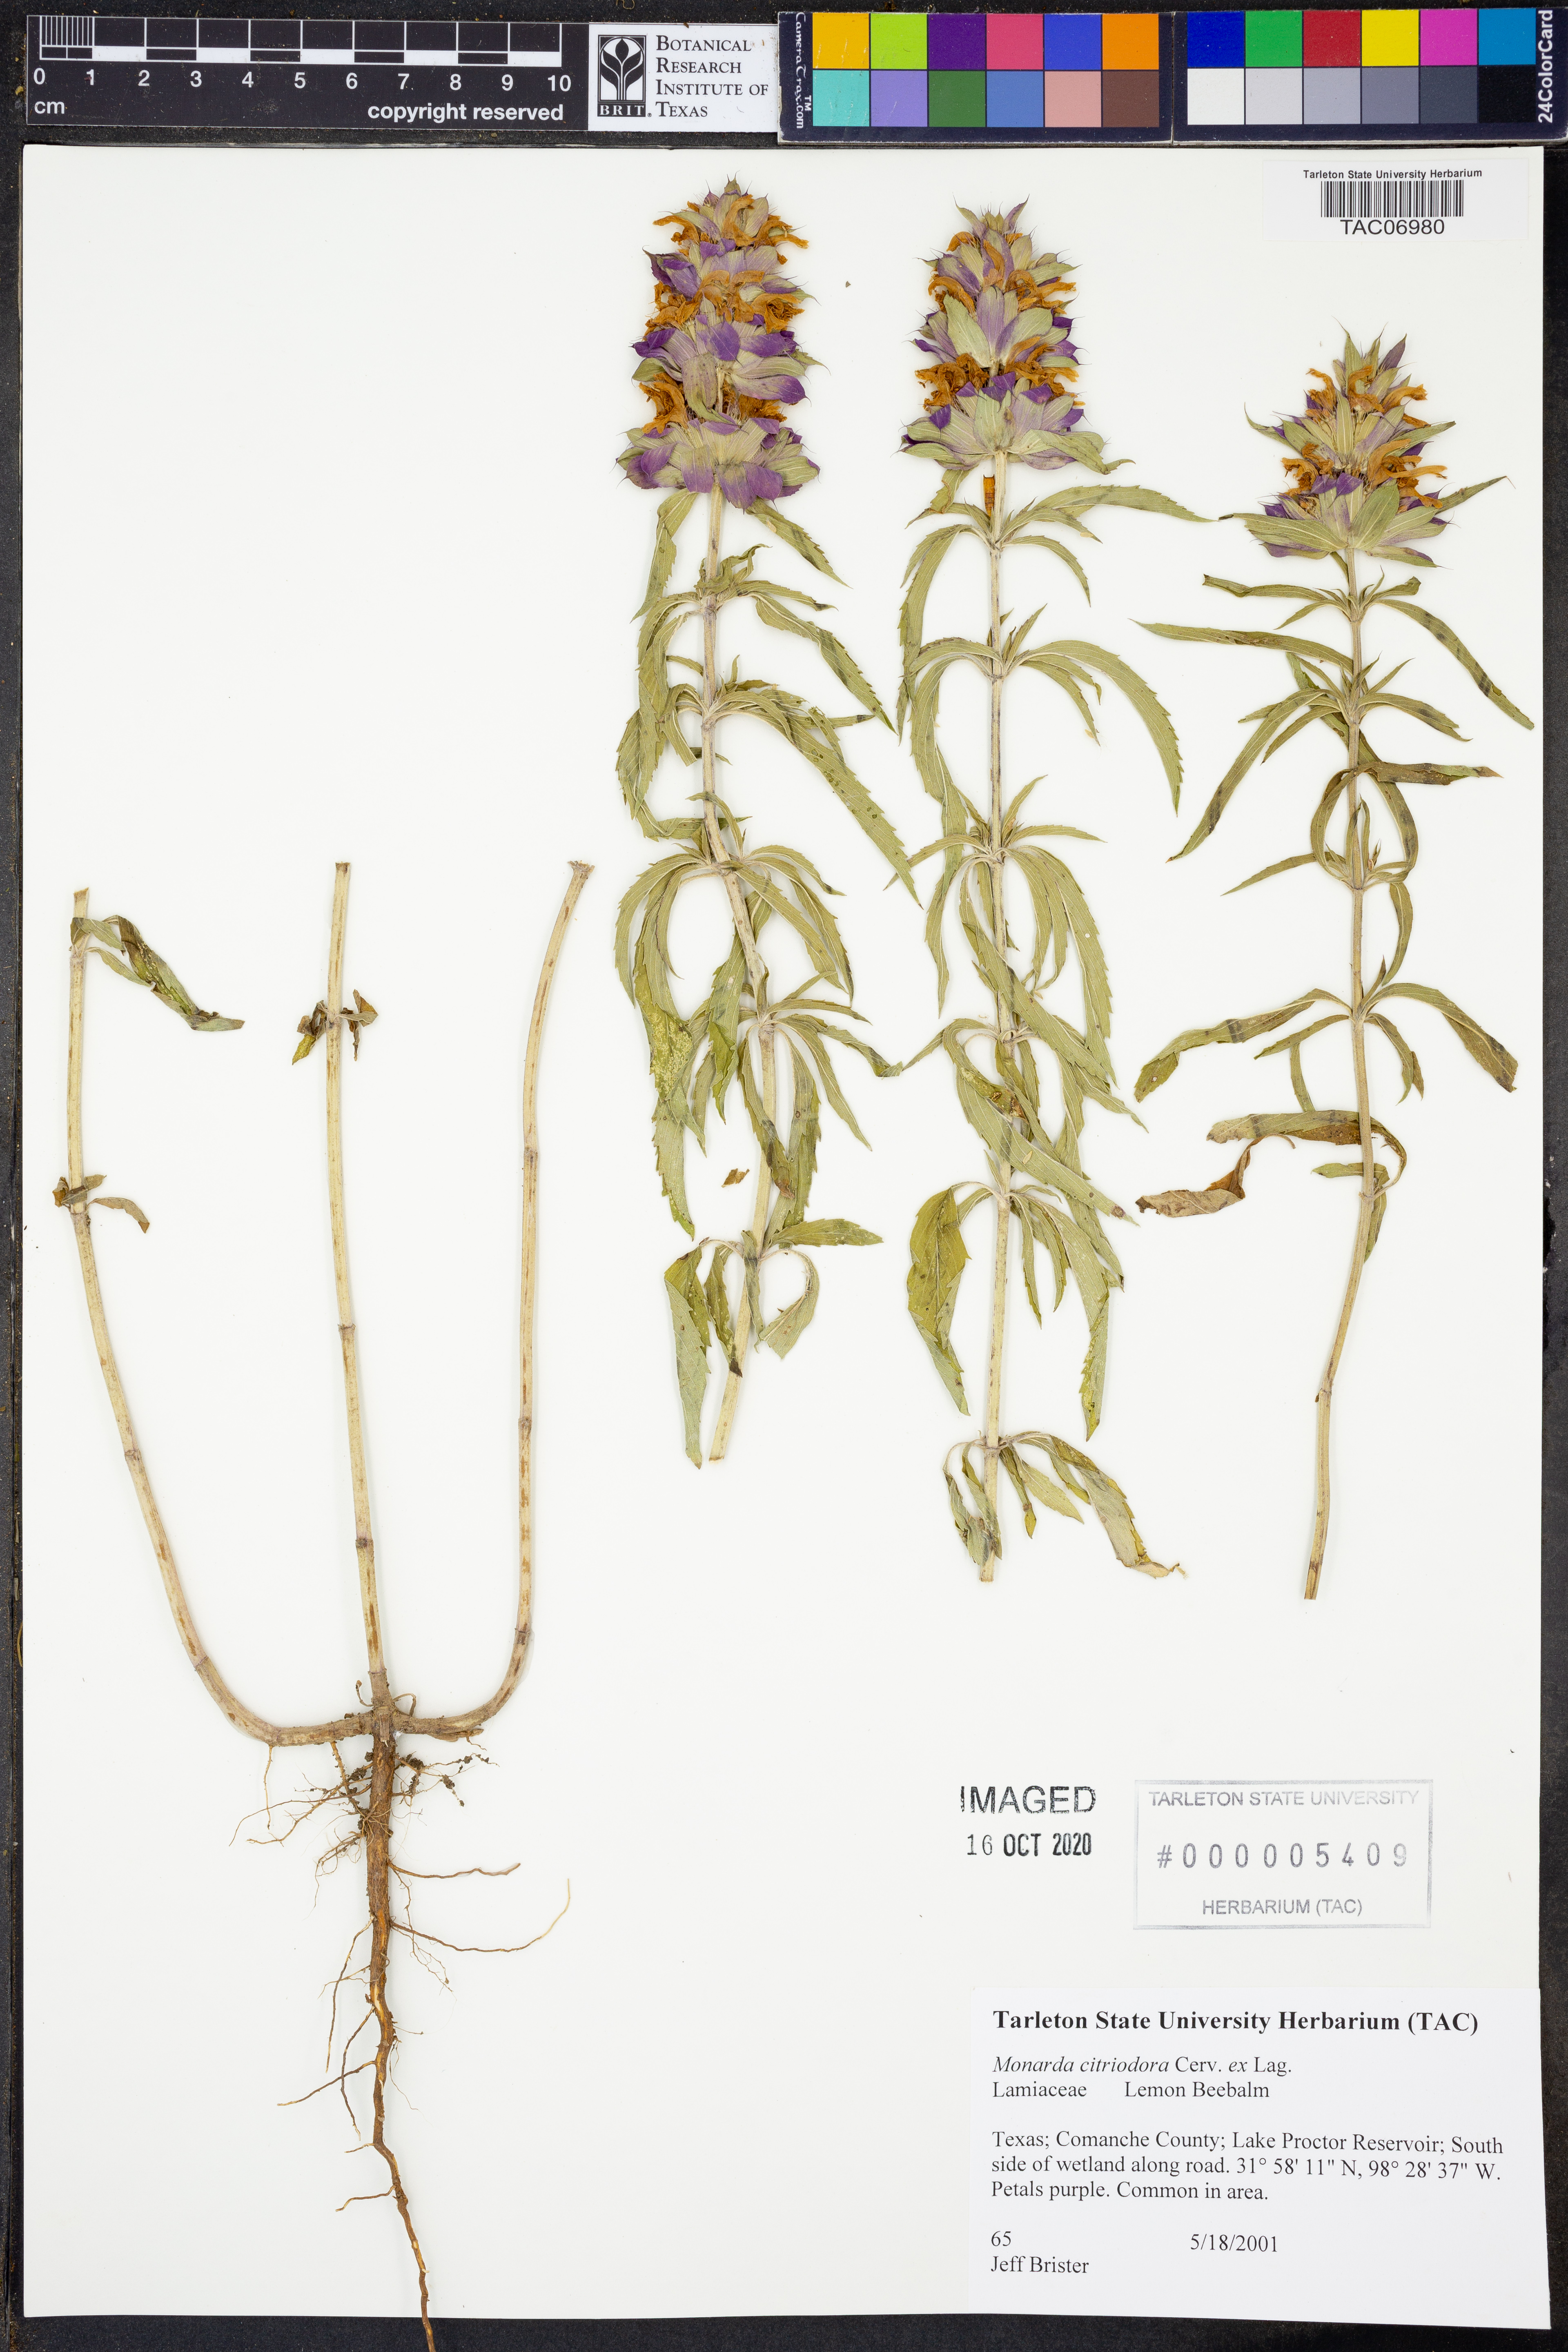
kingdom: Plantae
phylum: Tracheophyta
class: Magnoliopsida
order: Lamiales
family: Lamiaceae
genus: Monarda
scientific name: Monarda citriodora
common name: Lemon beebalm
